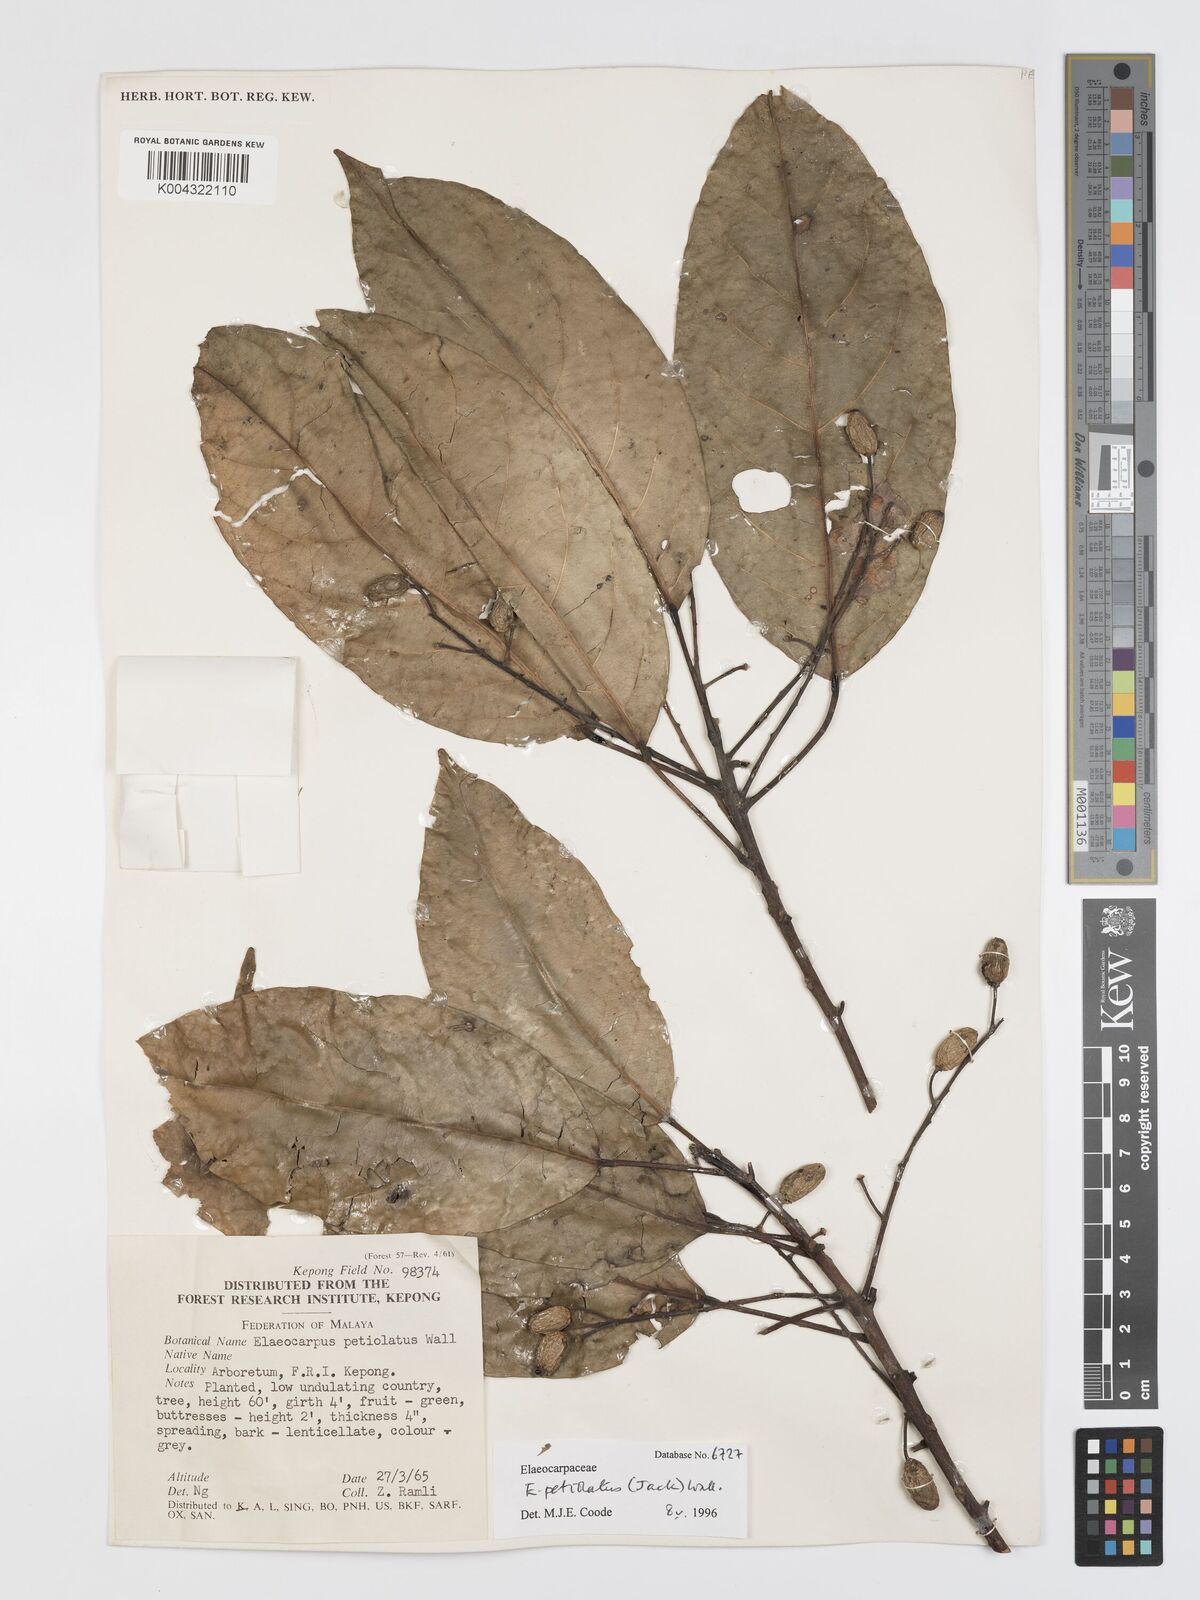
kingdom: Plantae
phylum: Tracheophyta
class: Magnoliopsida
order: Oxalidales
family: Elaeocarpaceae
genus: Elaeocarpus
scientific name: Elaeocarpus petiolatus
